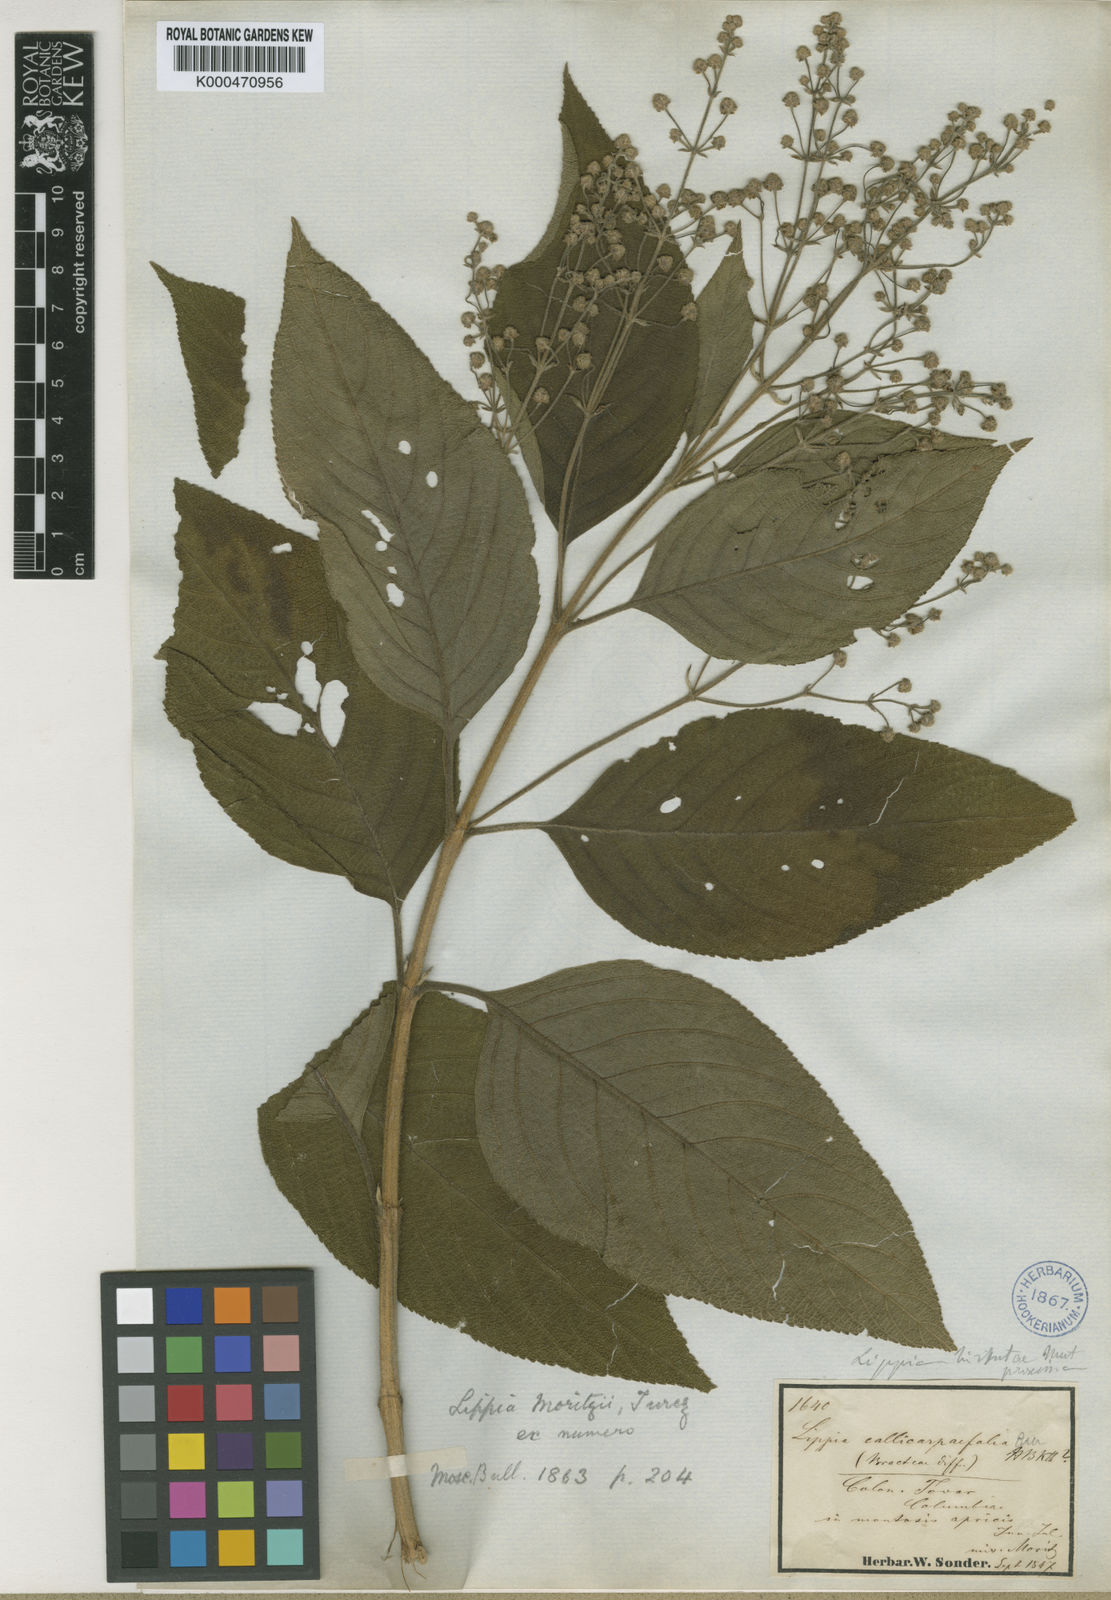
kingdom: Plantae
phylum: Tracheophyta
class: Magnoliopsida
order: Lamiales
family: Verbenaceae
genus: Lippia
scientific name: Lippia hirsuta
